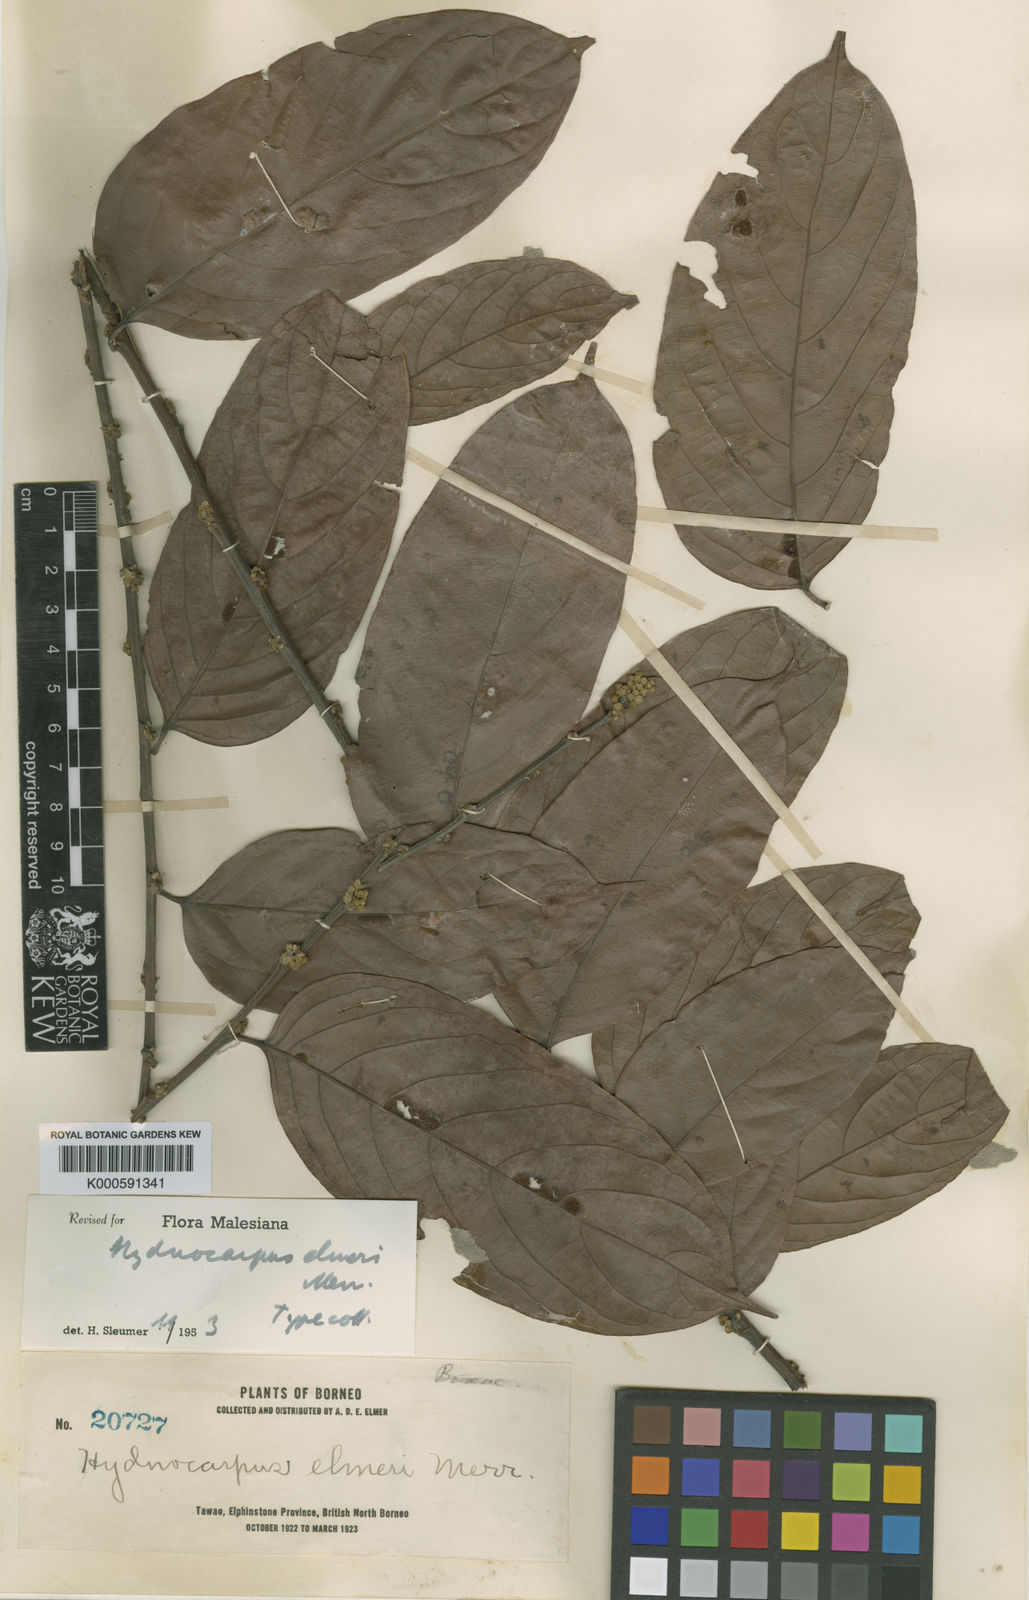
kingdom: Plantae
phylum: Tracheophyta
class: Magnoliopsida
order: Malpighiales
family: Achariaceae
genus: Hydnocarpus
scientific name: Hydnocarpus
